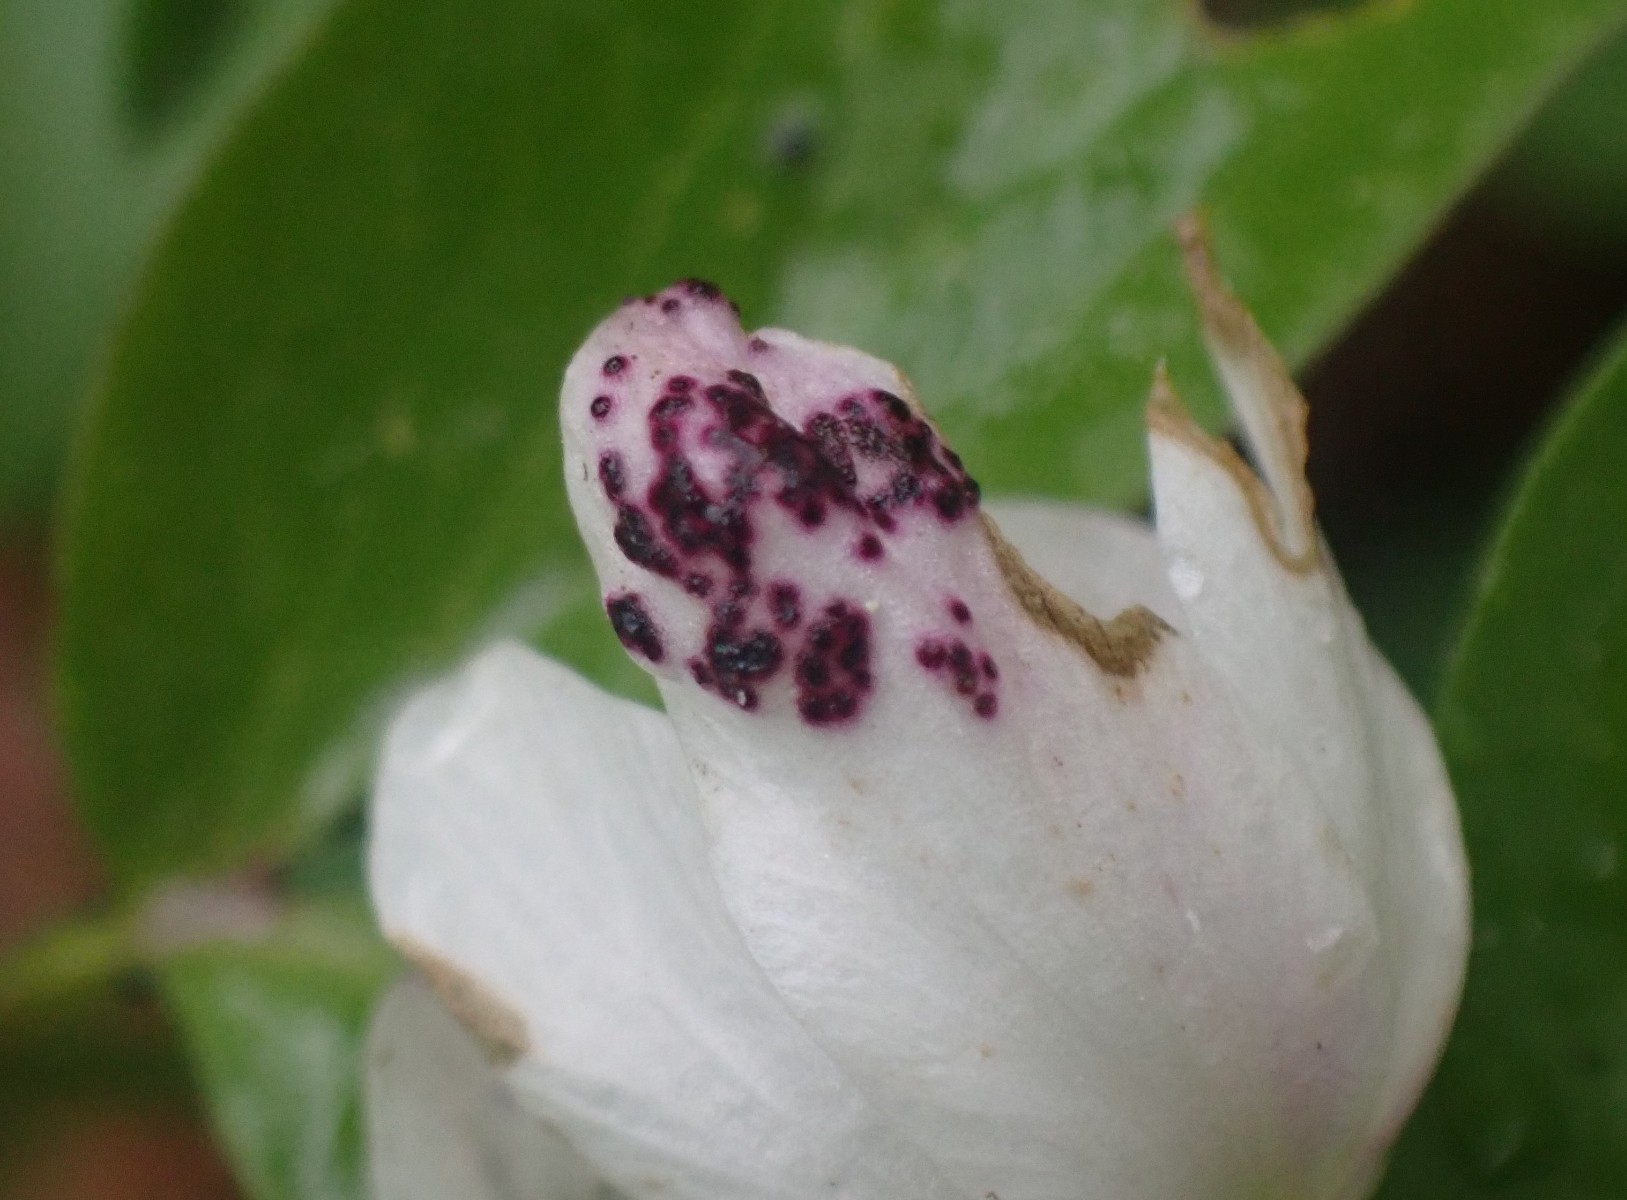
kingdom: Fungi
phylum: Chytridiomycota
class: Chytridiomycetes
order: Chytridiales
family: Synchytriaceae
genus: Synchytrium
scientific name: Synchytrium anemones
